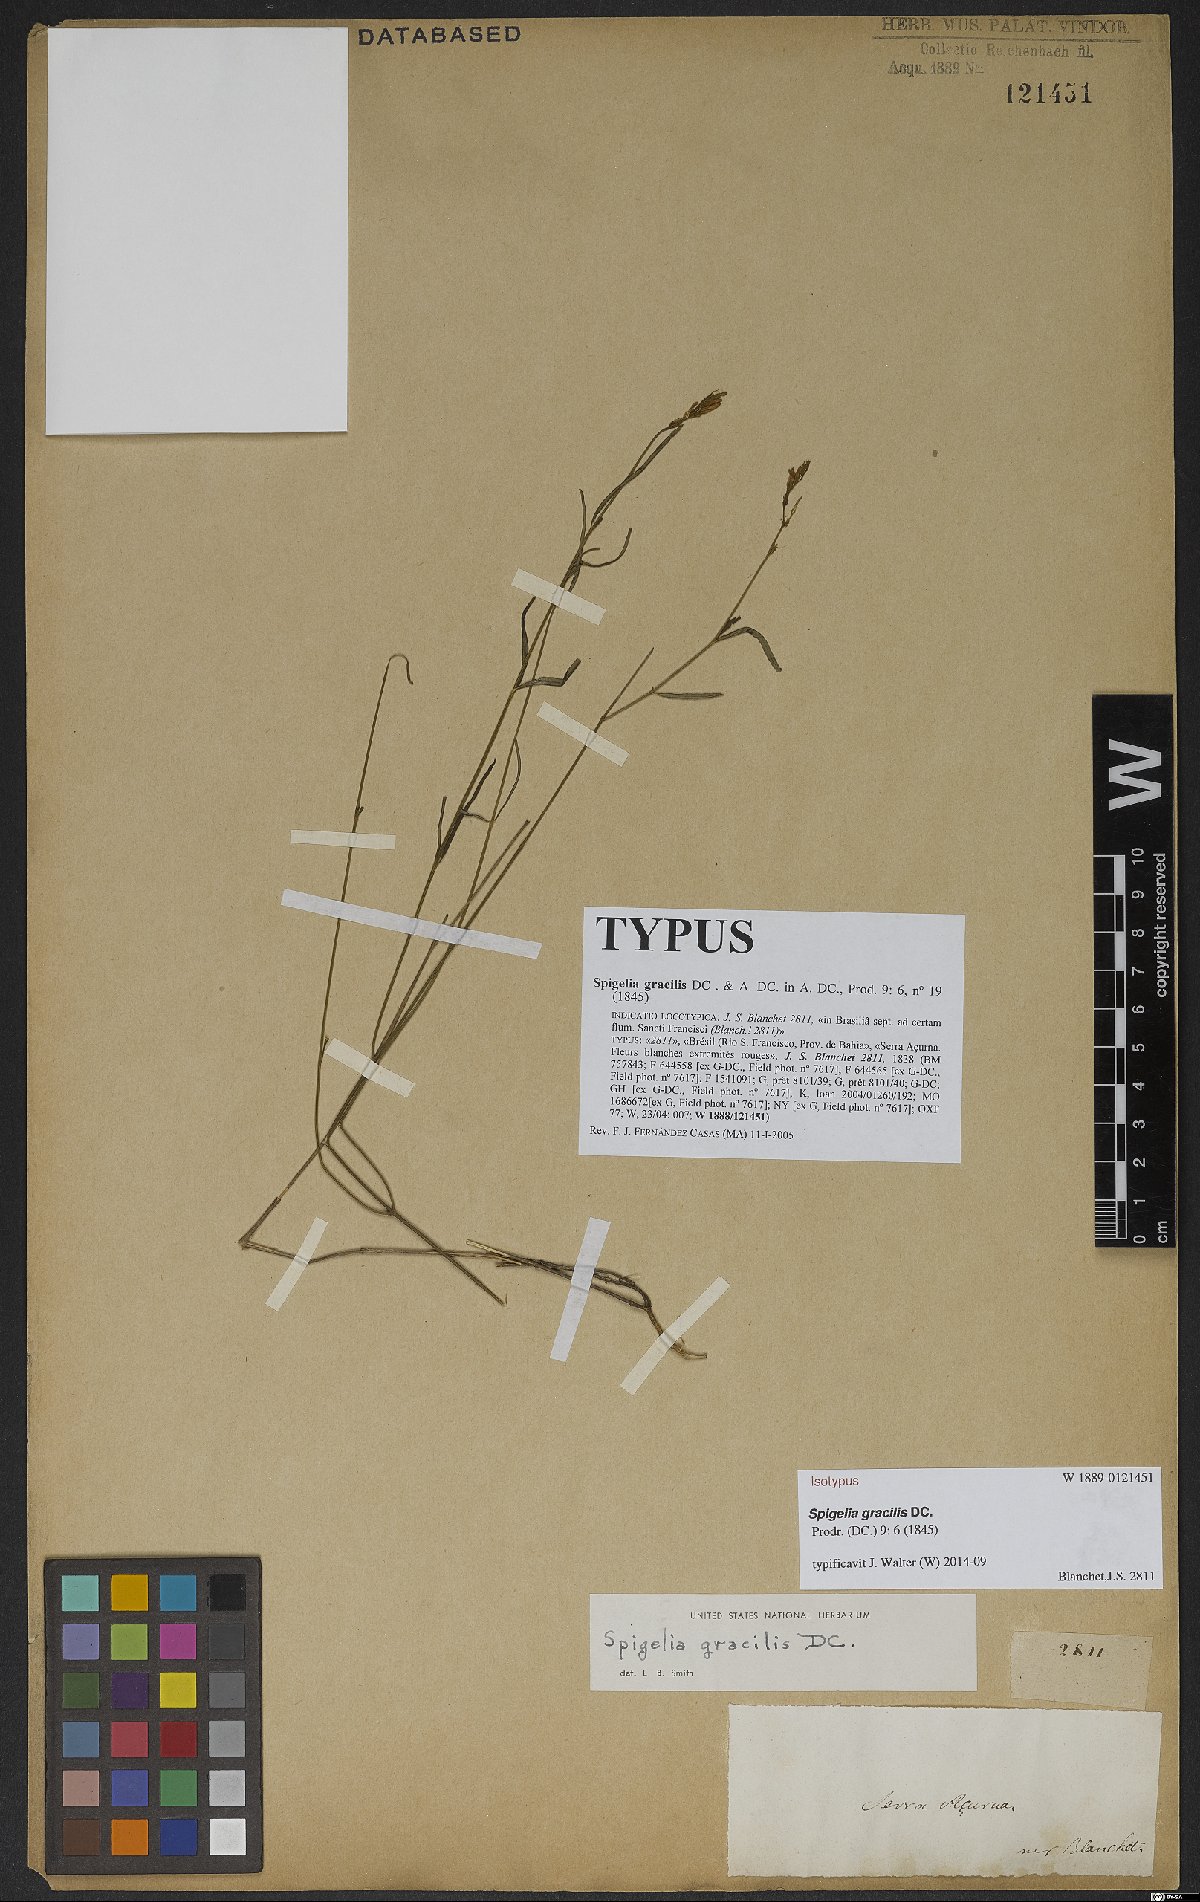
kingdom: Plantae
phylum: Tracheophyta
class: Magnoliopsida
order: Gentianales
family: Loganiaceae
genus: Spigelia
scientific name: Spigelia gracilis
